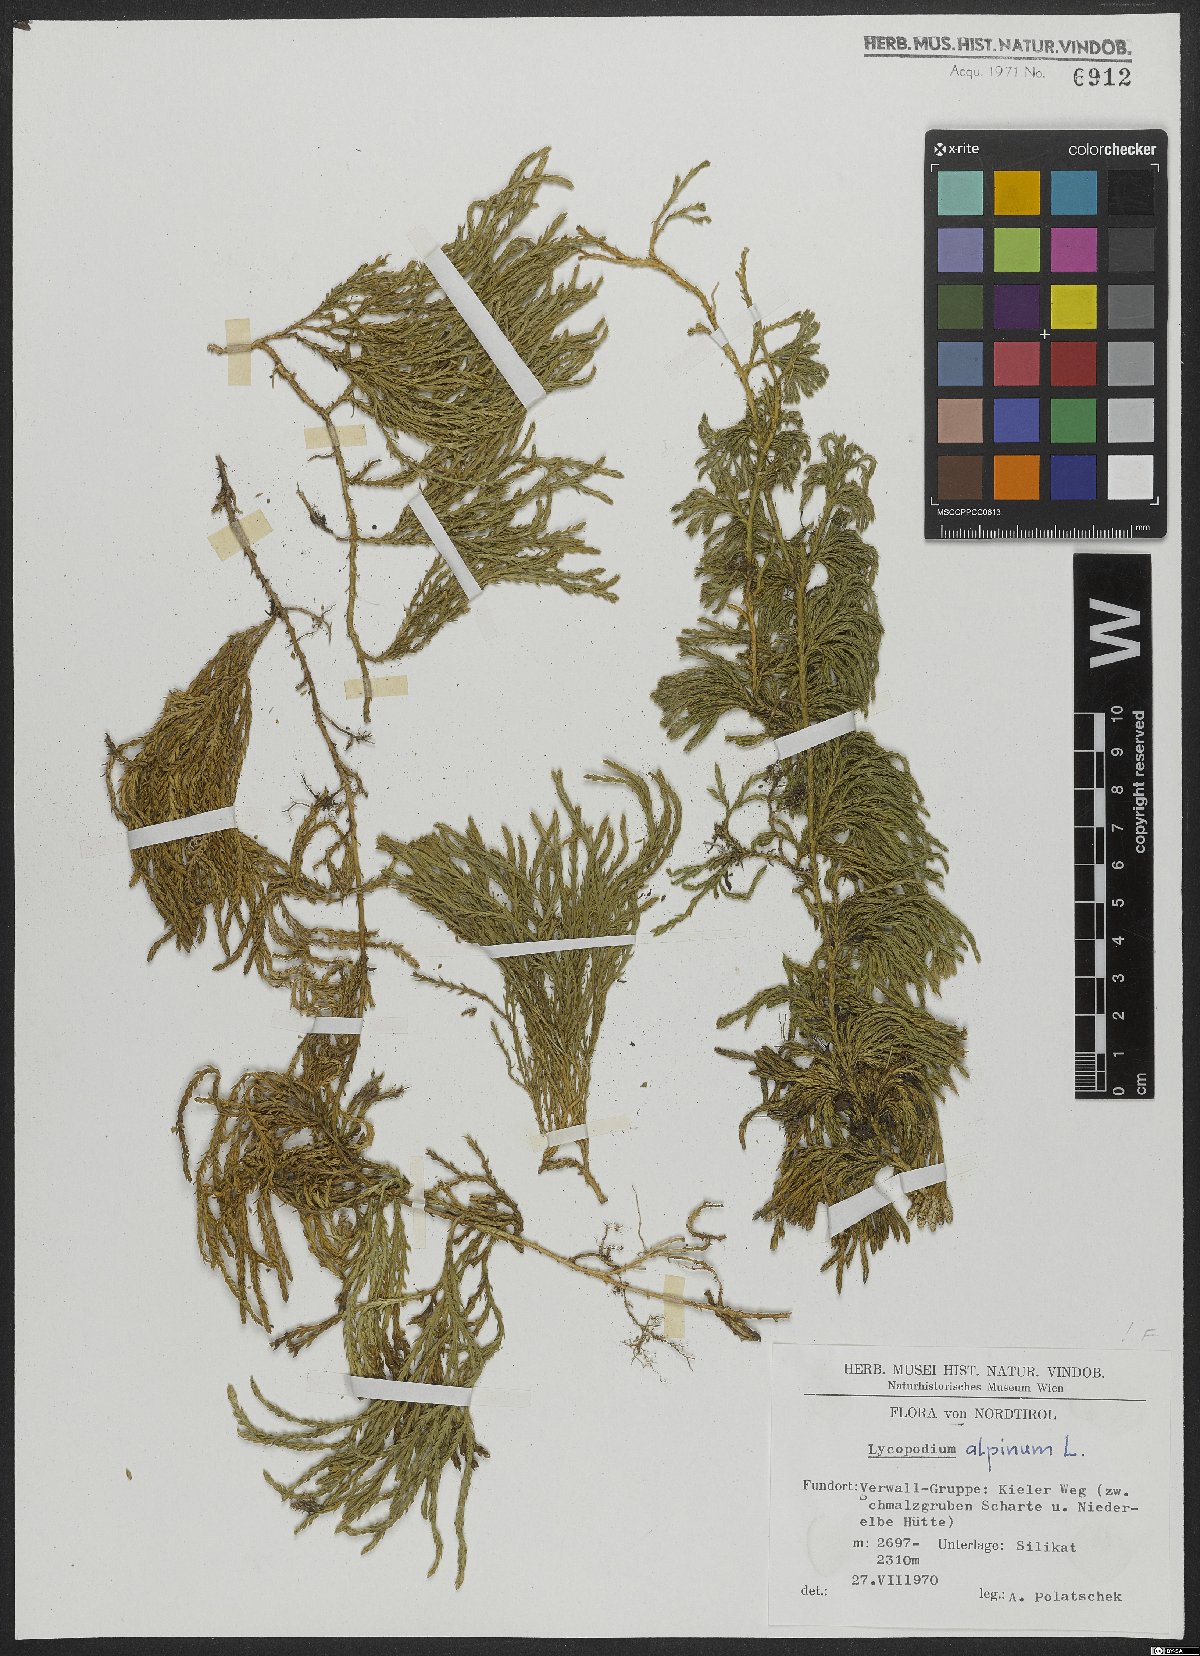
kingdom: Plantae
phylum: Tracheophyta
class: Lycopodiopsida
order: Lycopodiales
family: Lycopodiaceae
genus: Diphasiastrum
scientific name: Diphasiastrum alpinum
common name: Alpine clubmoss
